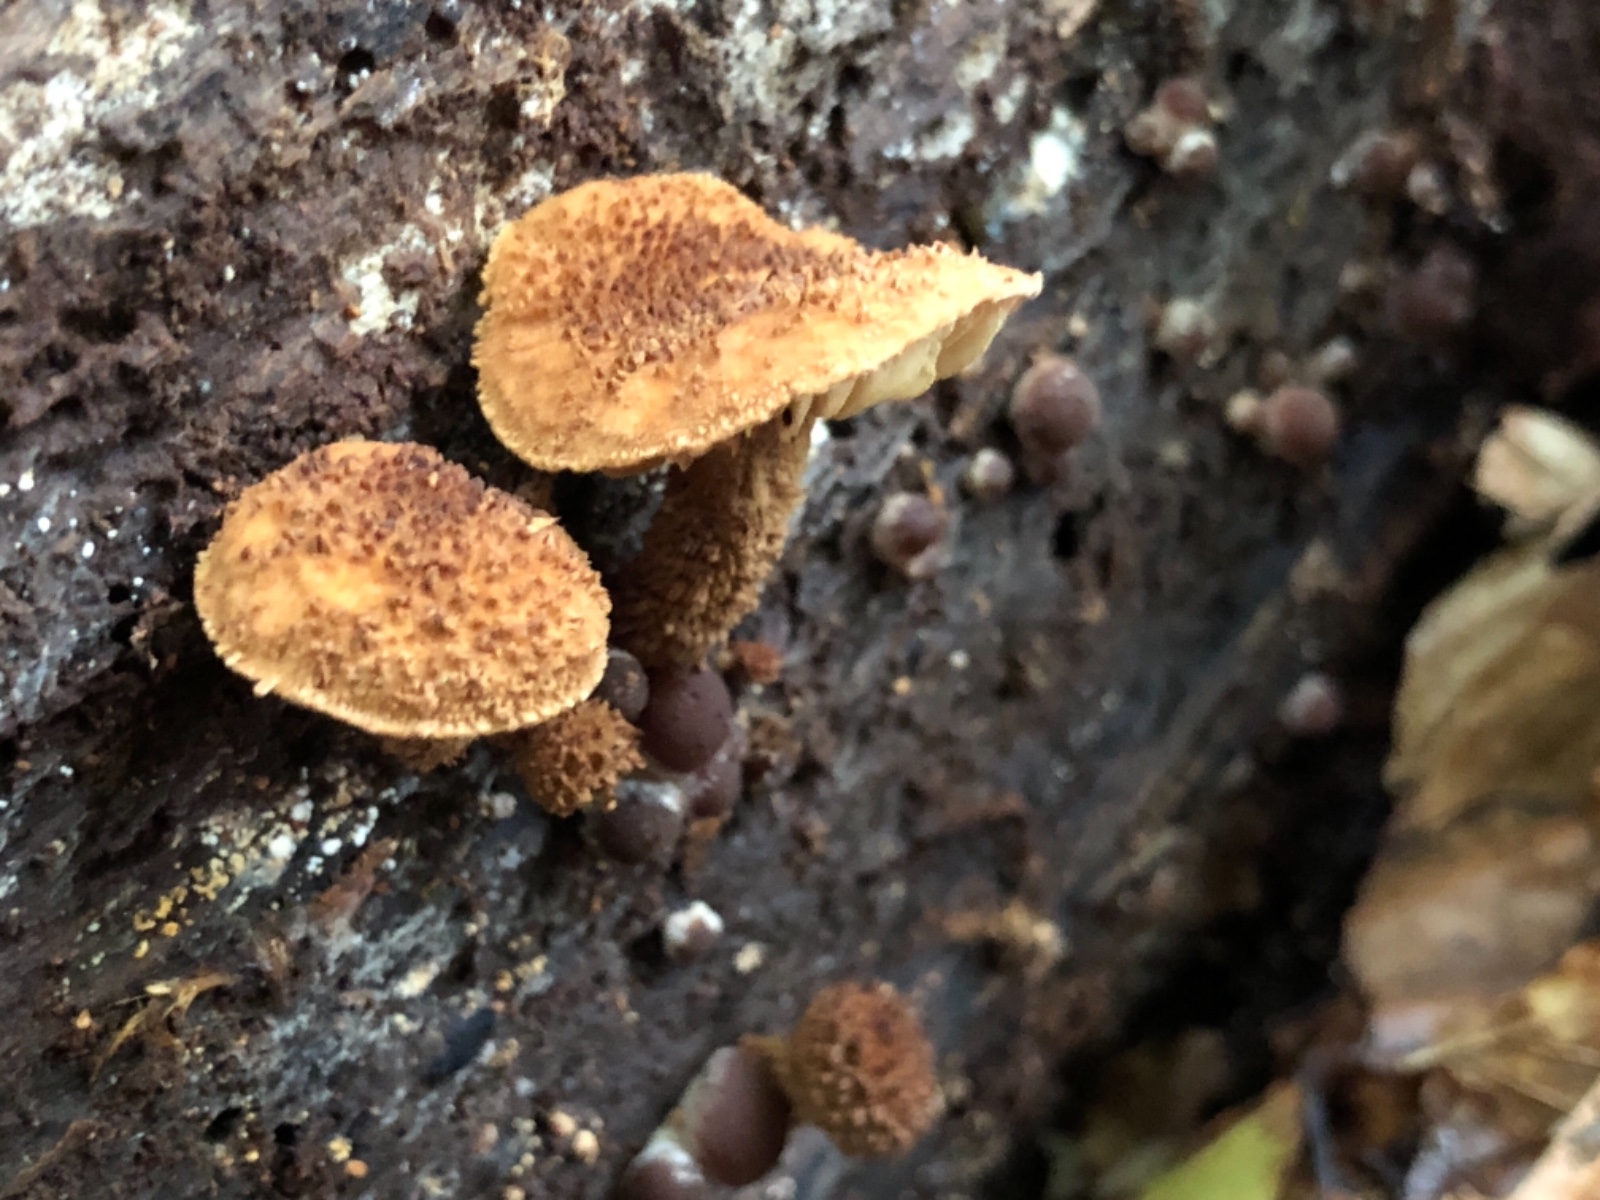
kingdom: Fungi
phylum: Basidiomycota
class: Agaricomycetes
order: Agaricales
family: Tubariaceae
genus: Flammulaster
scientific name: Flammulaster muricatus
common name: pigget grynskælhat
